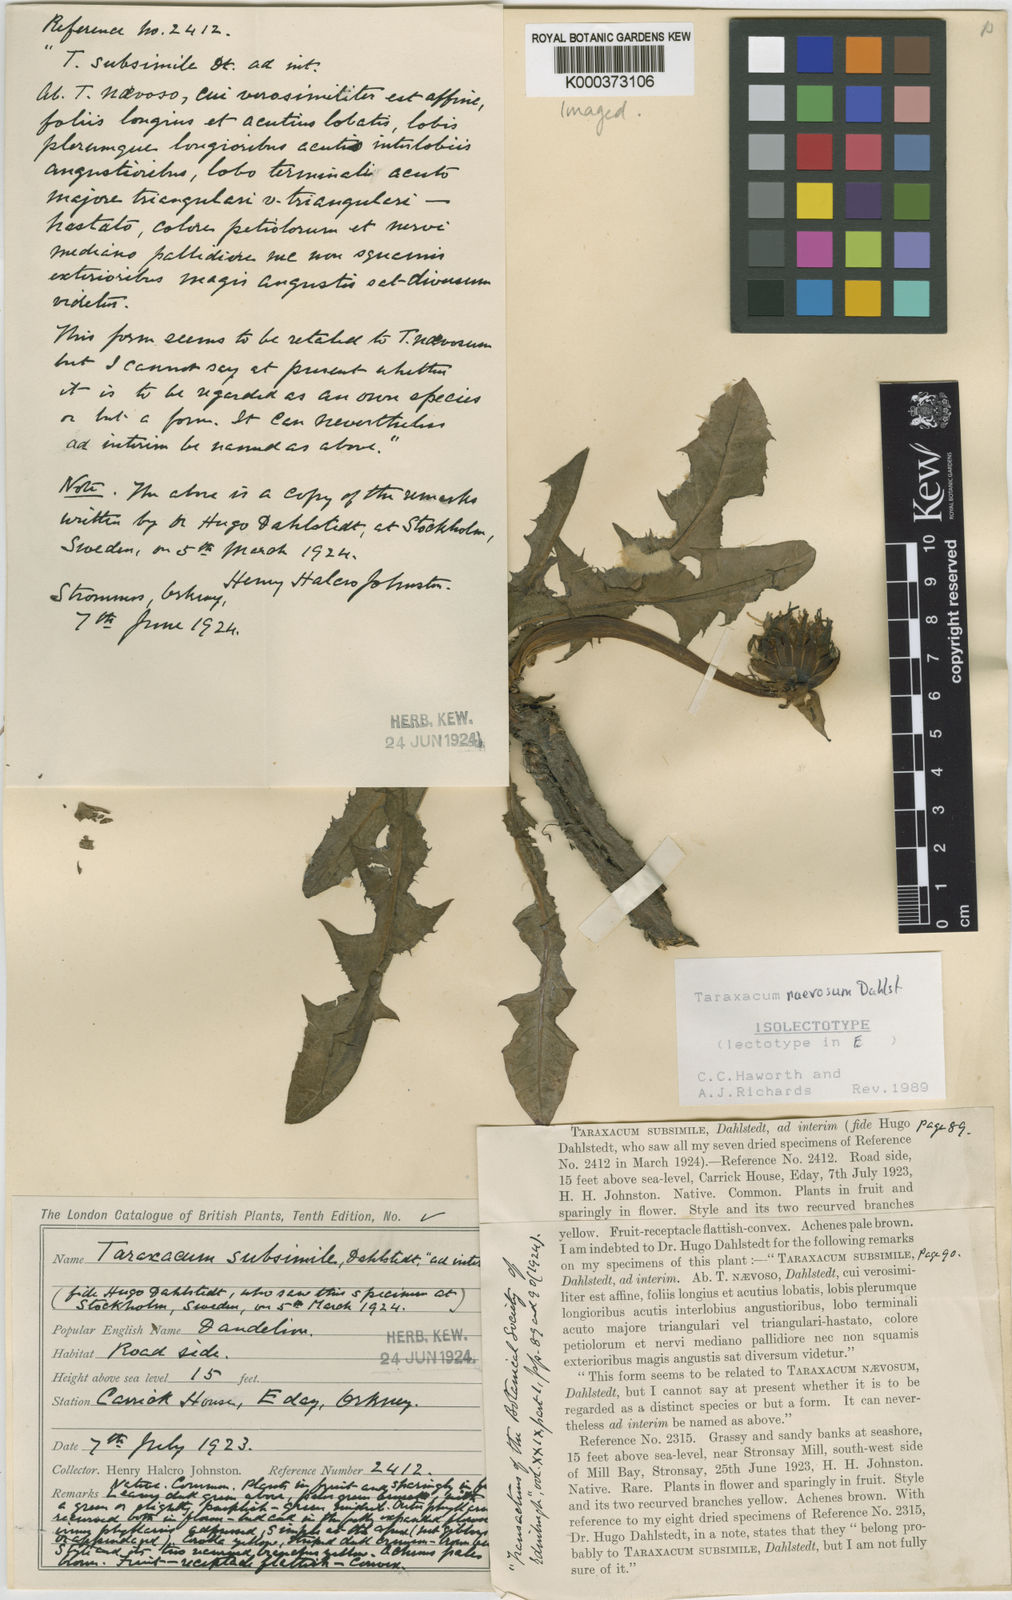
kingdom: Plantae
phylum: Tracheophyta
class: Magnoliopsida
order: Asterales
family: Asteraceae
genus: Taraxacum
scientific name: Taraxacum naevosum
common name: Squat dandelion
